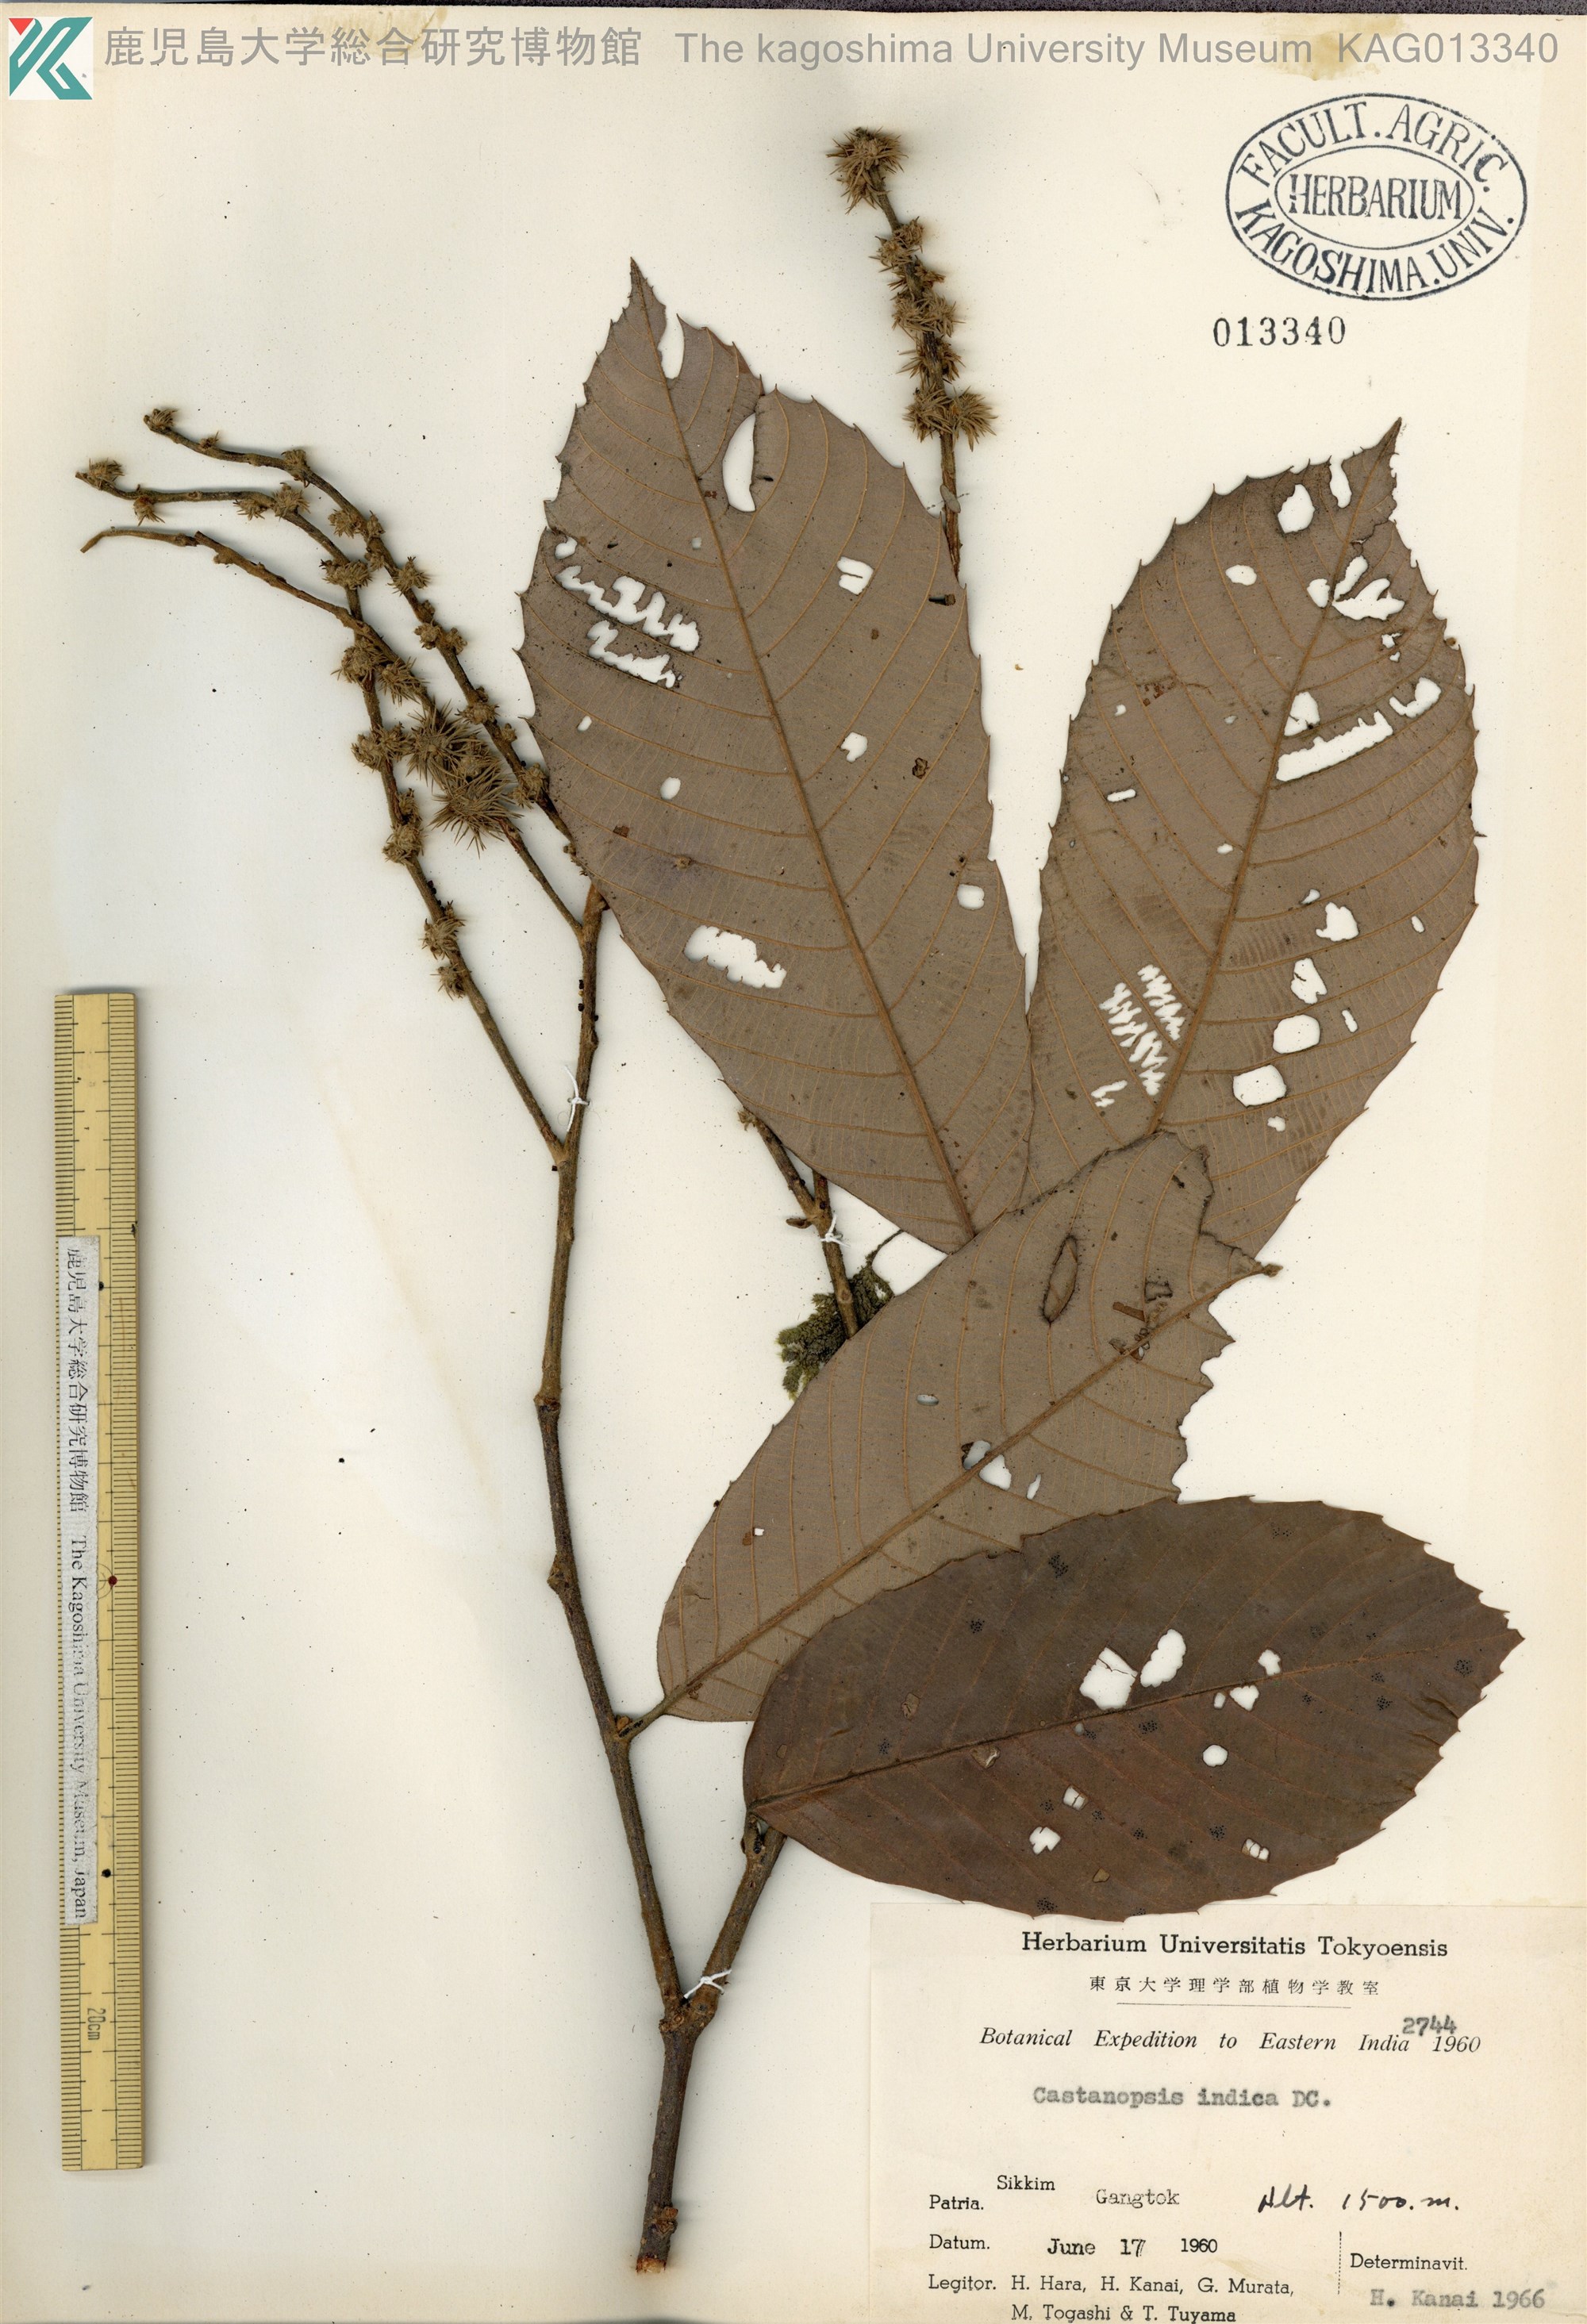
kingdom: Plantae
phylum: Tracheophyta
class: Magnoliopsida
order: Fagales
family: Fagaceae
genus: Castanopsis
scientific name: Castanopsis indica
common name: Indian-chestnut
